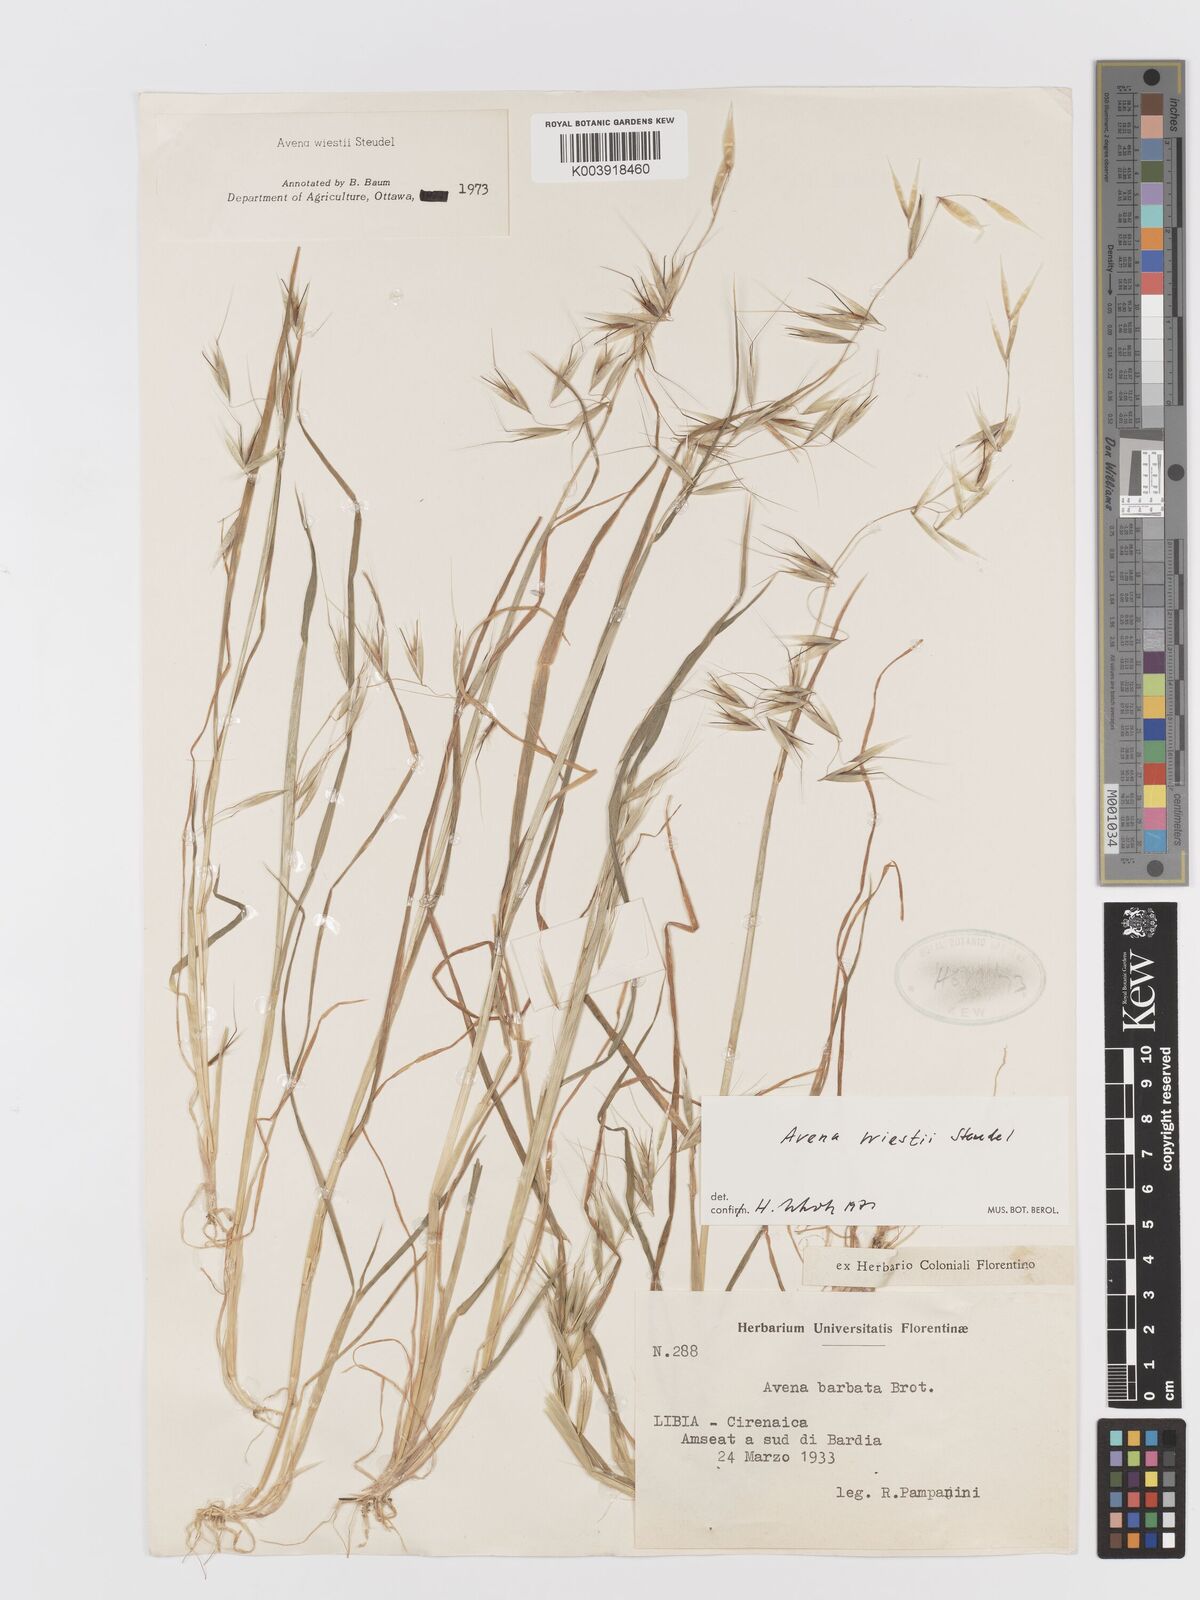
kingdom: Plantae
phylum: Tracheophyta
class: Liliopsida
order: Poales
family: Poaceae
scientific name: Poaceae
